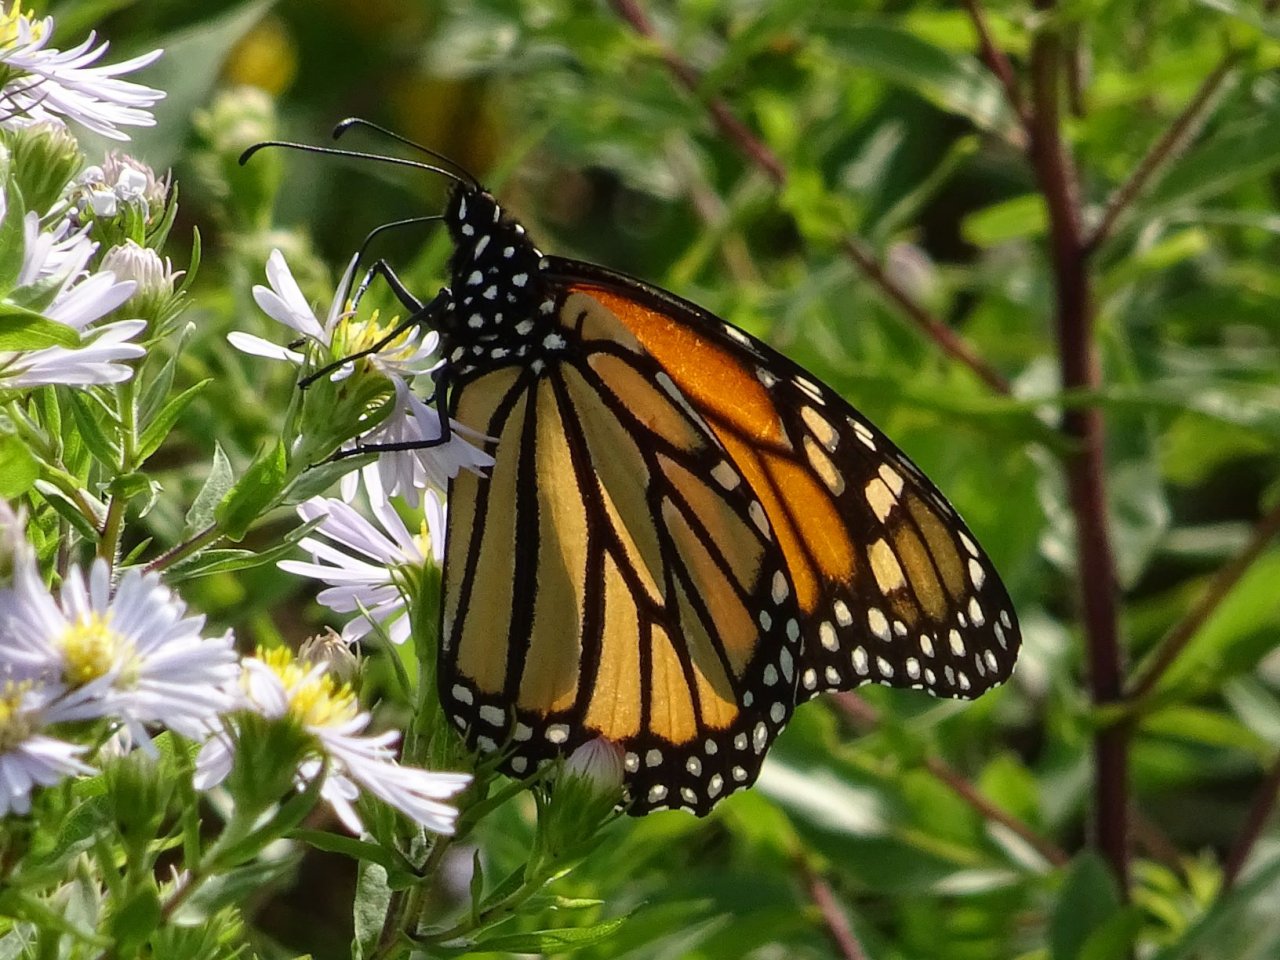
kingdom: Animalia
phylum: Arthropoda
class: Insecta
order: Lepidoptera
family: Nymphalidae
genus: Danaus
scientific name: Danaus plexippus
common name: Monarch
